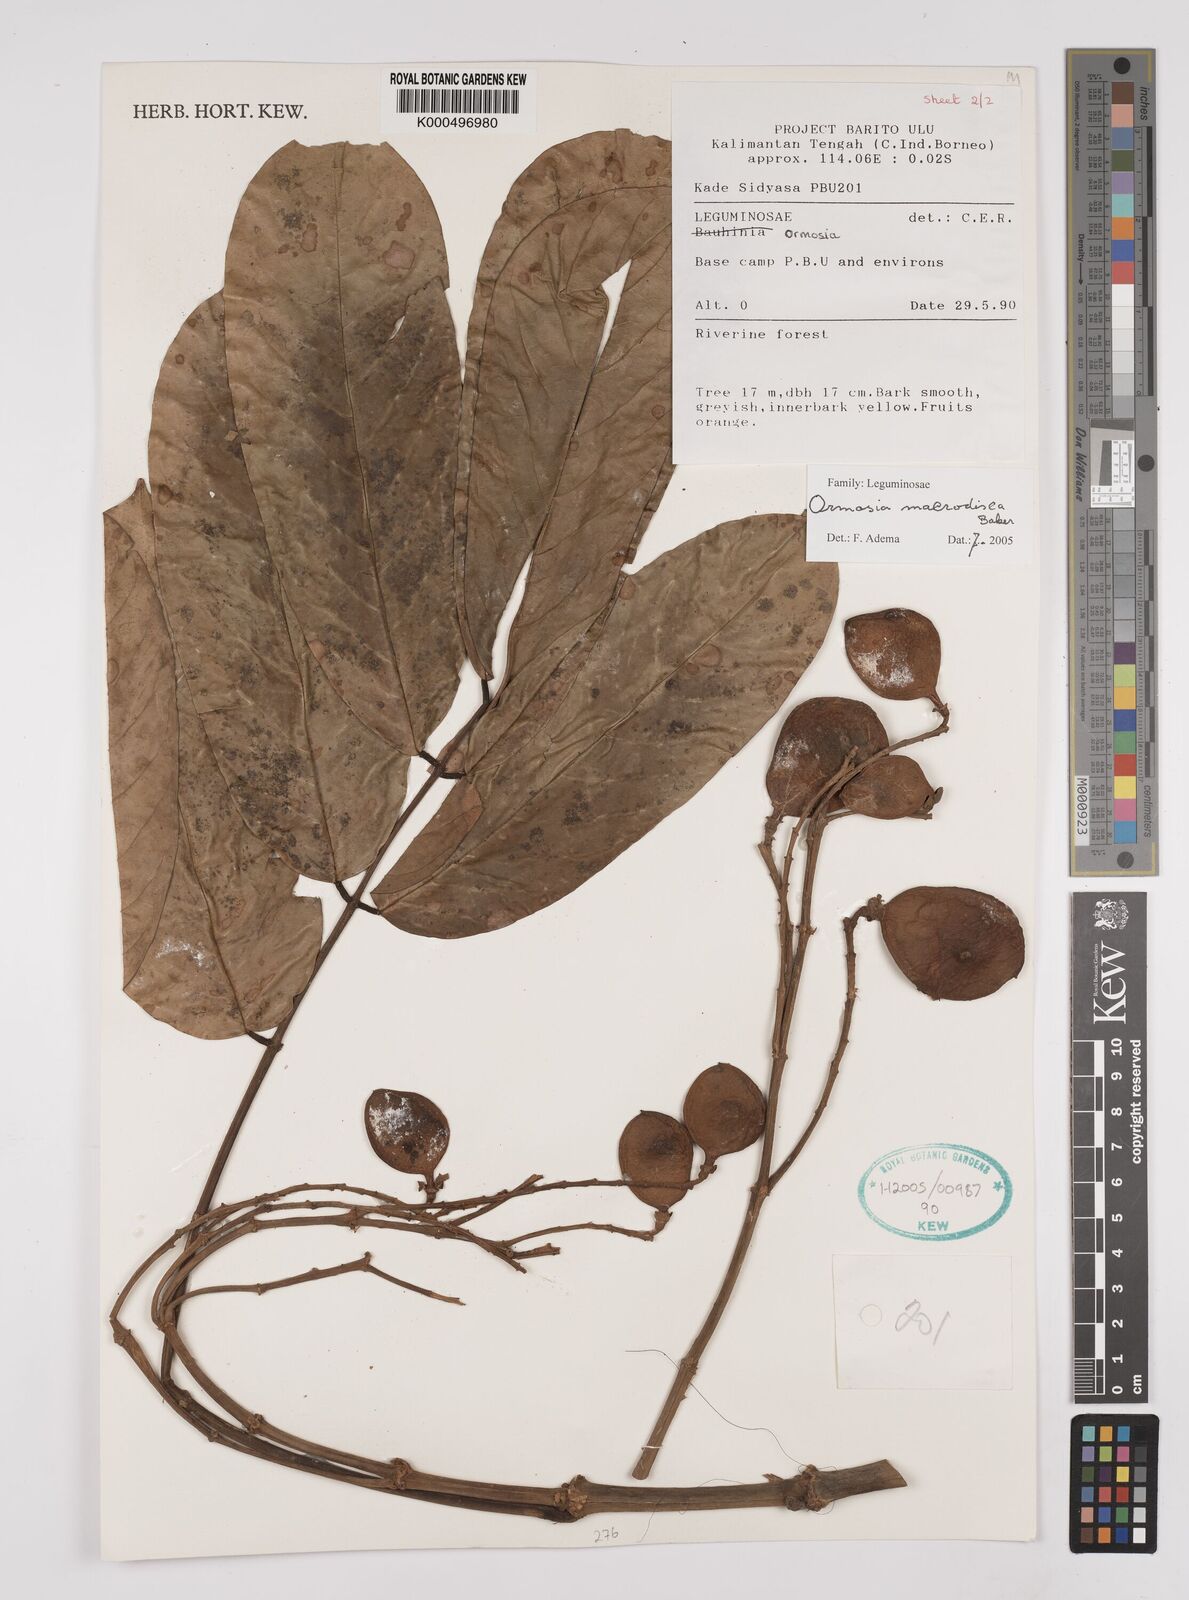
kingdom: Plantae
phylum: Tracheophyta
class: Magnoliopsida
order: Fabales
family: Fabaceae
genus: Ormosia
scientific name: Ormosia macrodisca
